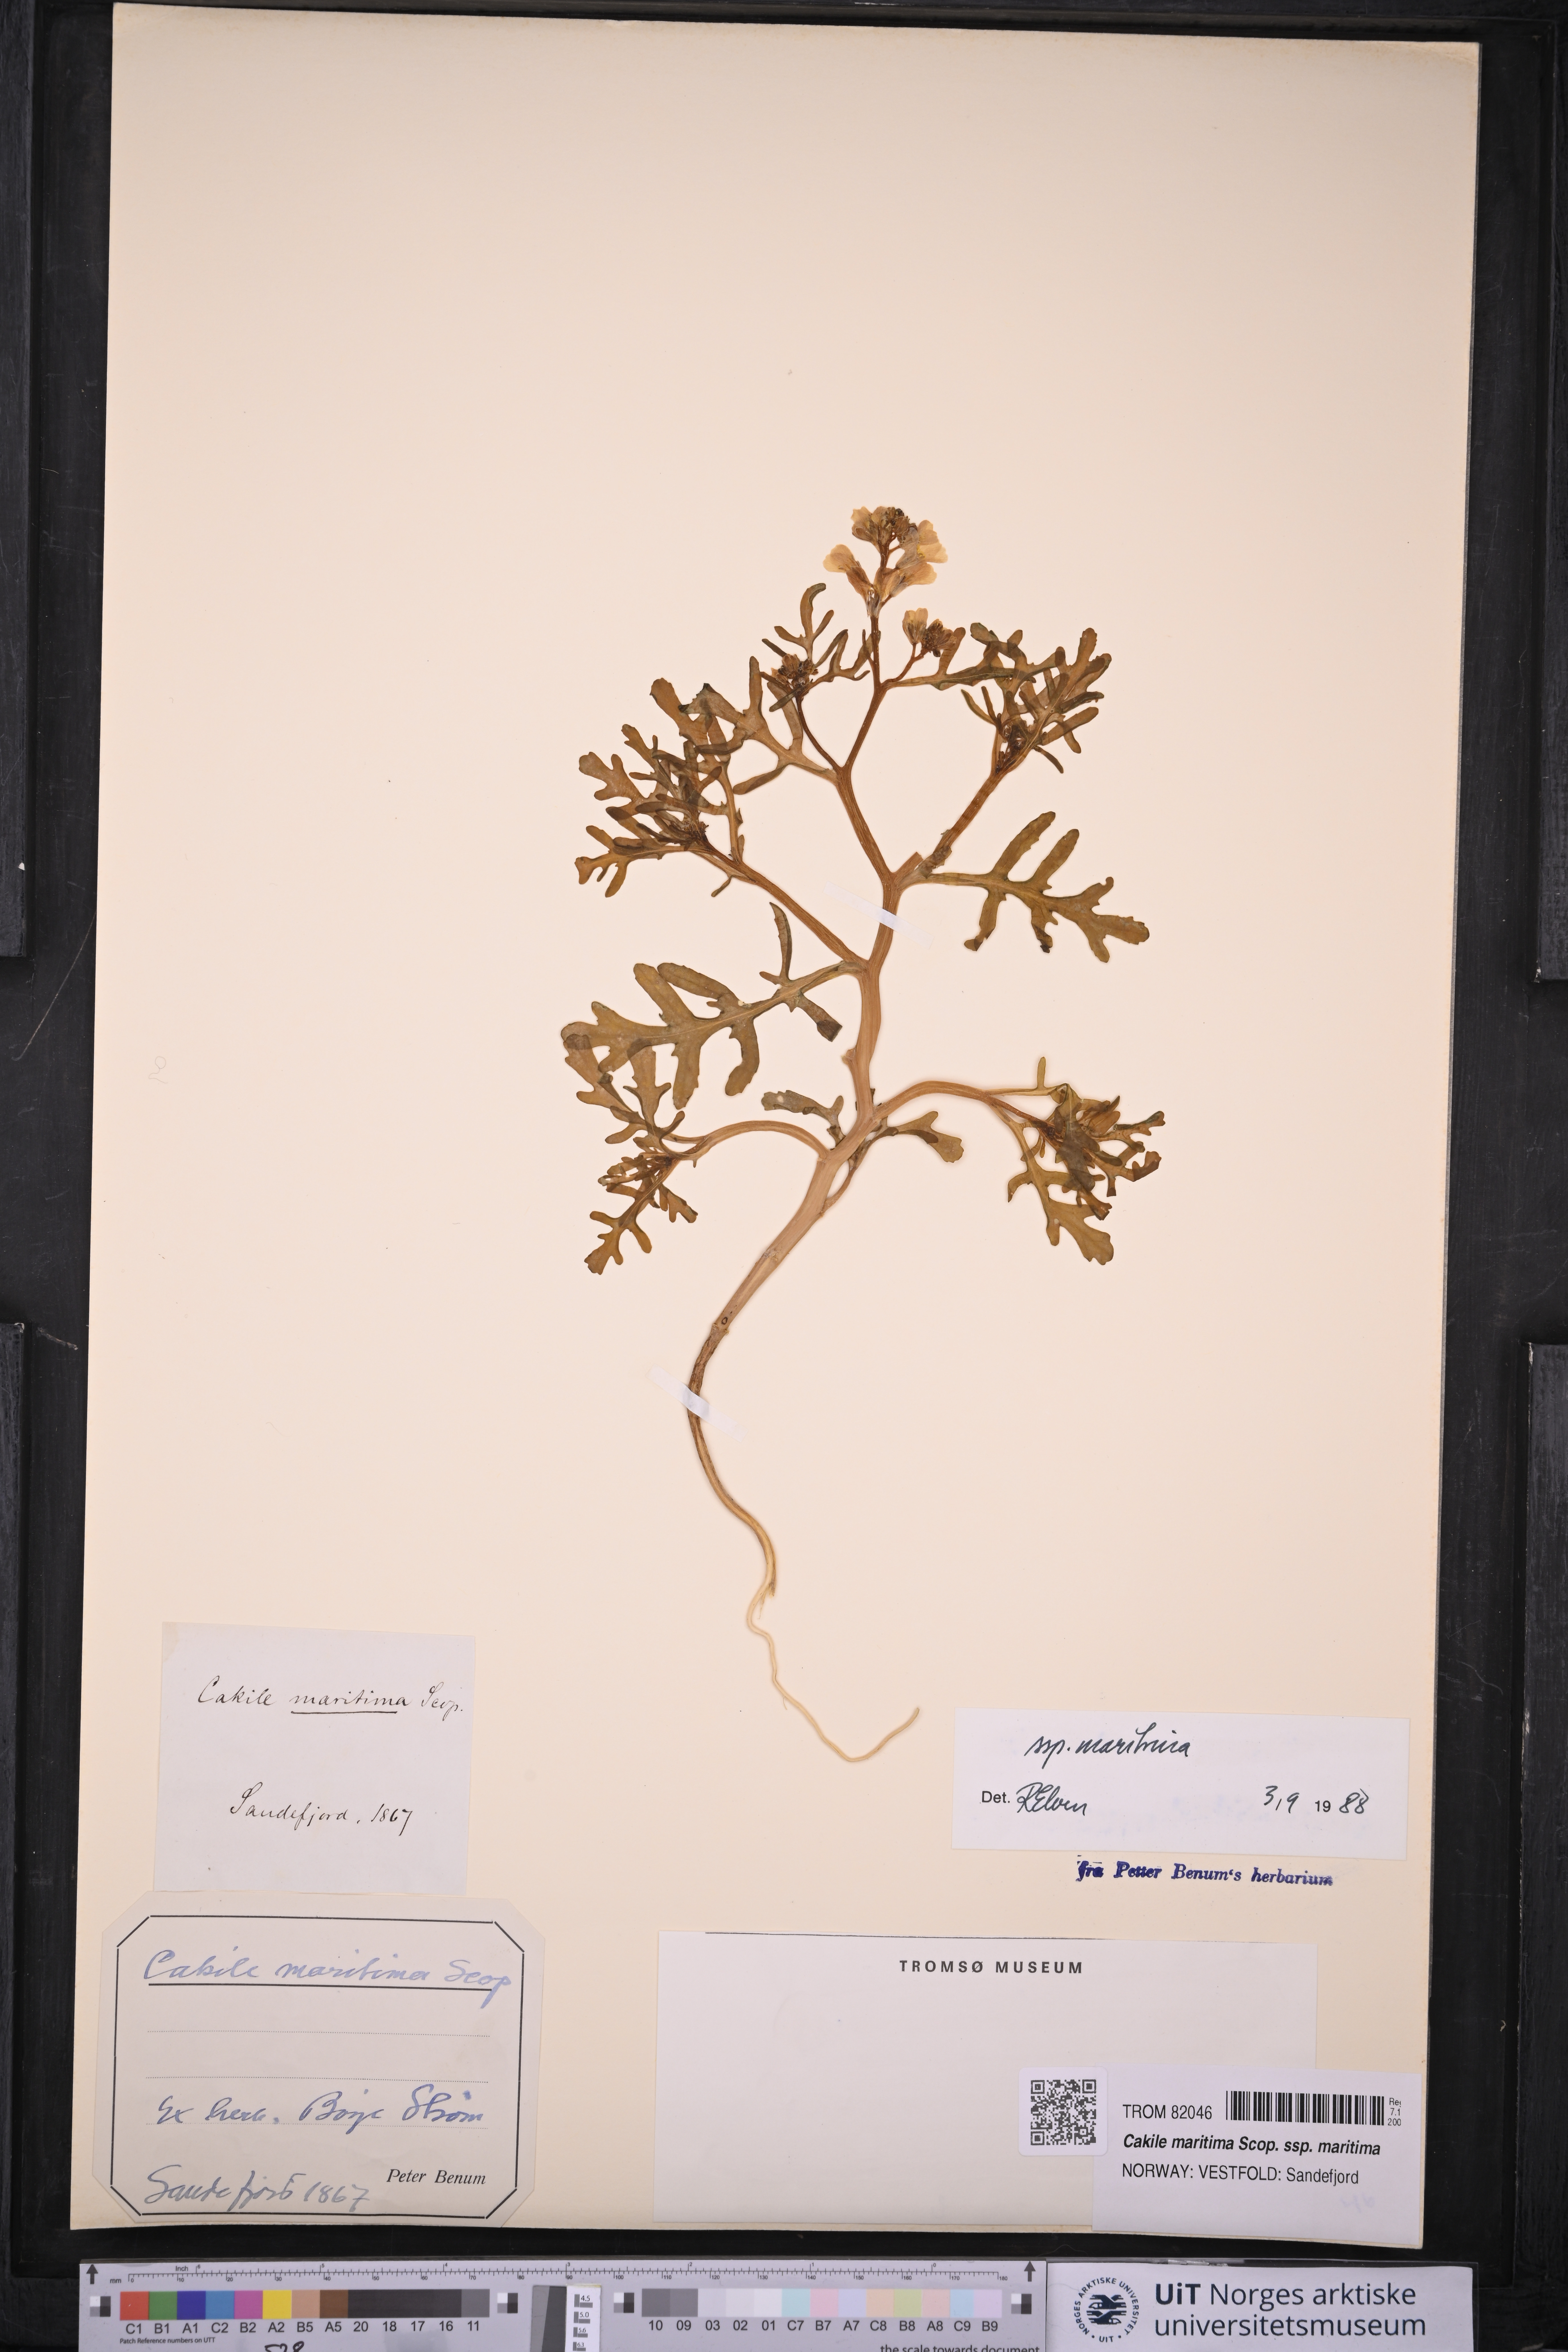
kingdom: Plantae
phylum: Tracheophyta
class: Magnoliopsida
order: Brassicales
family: Brassicaceae
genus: Cakile
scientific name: Cakile maritima
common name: Sea rocket
